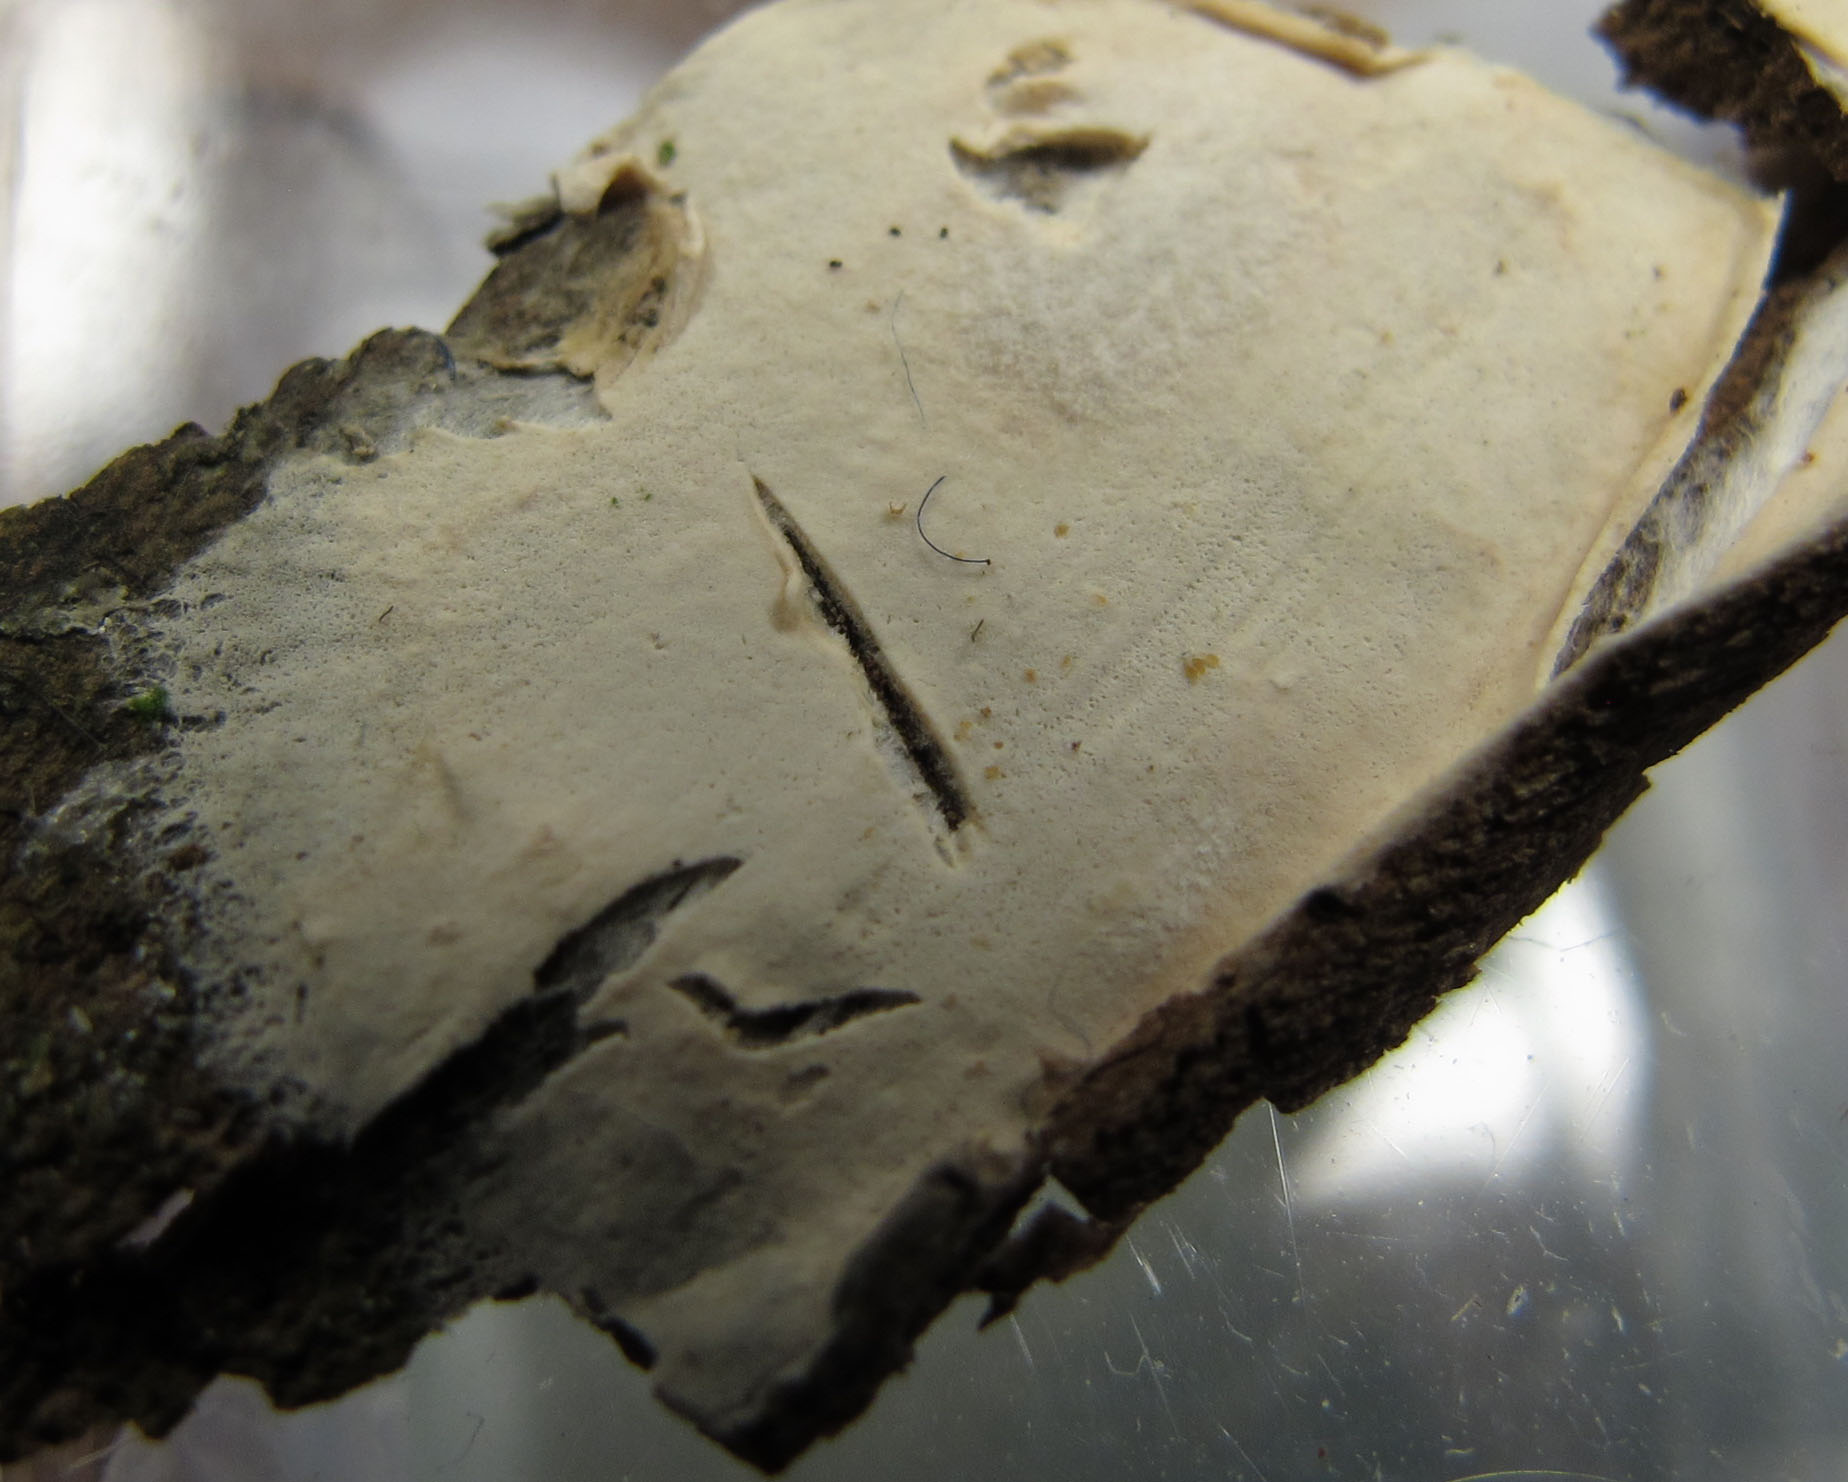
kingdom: Fungi
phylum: Basidiomycota
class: Agaricomycetes
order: Agaricales
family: Cyphellaceae
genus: Granulobasidium
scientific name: Granulobasidium vellereum
